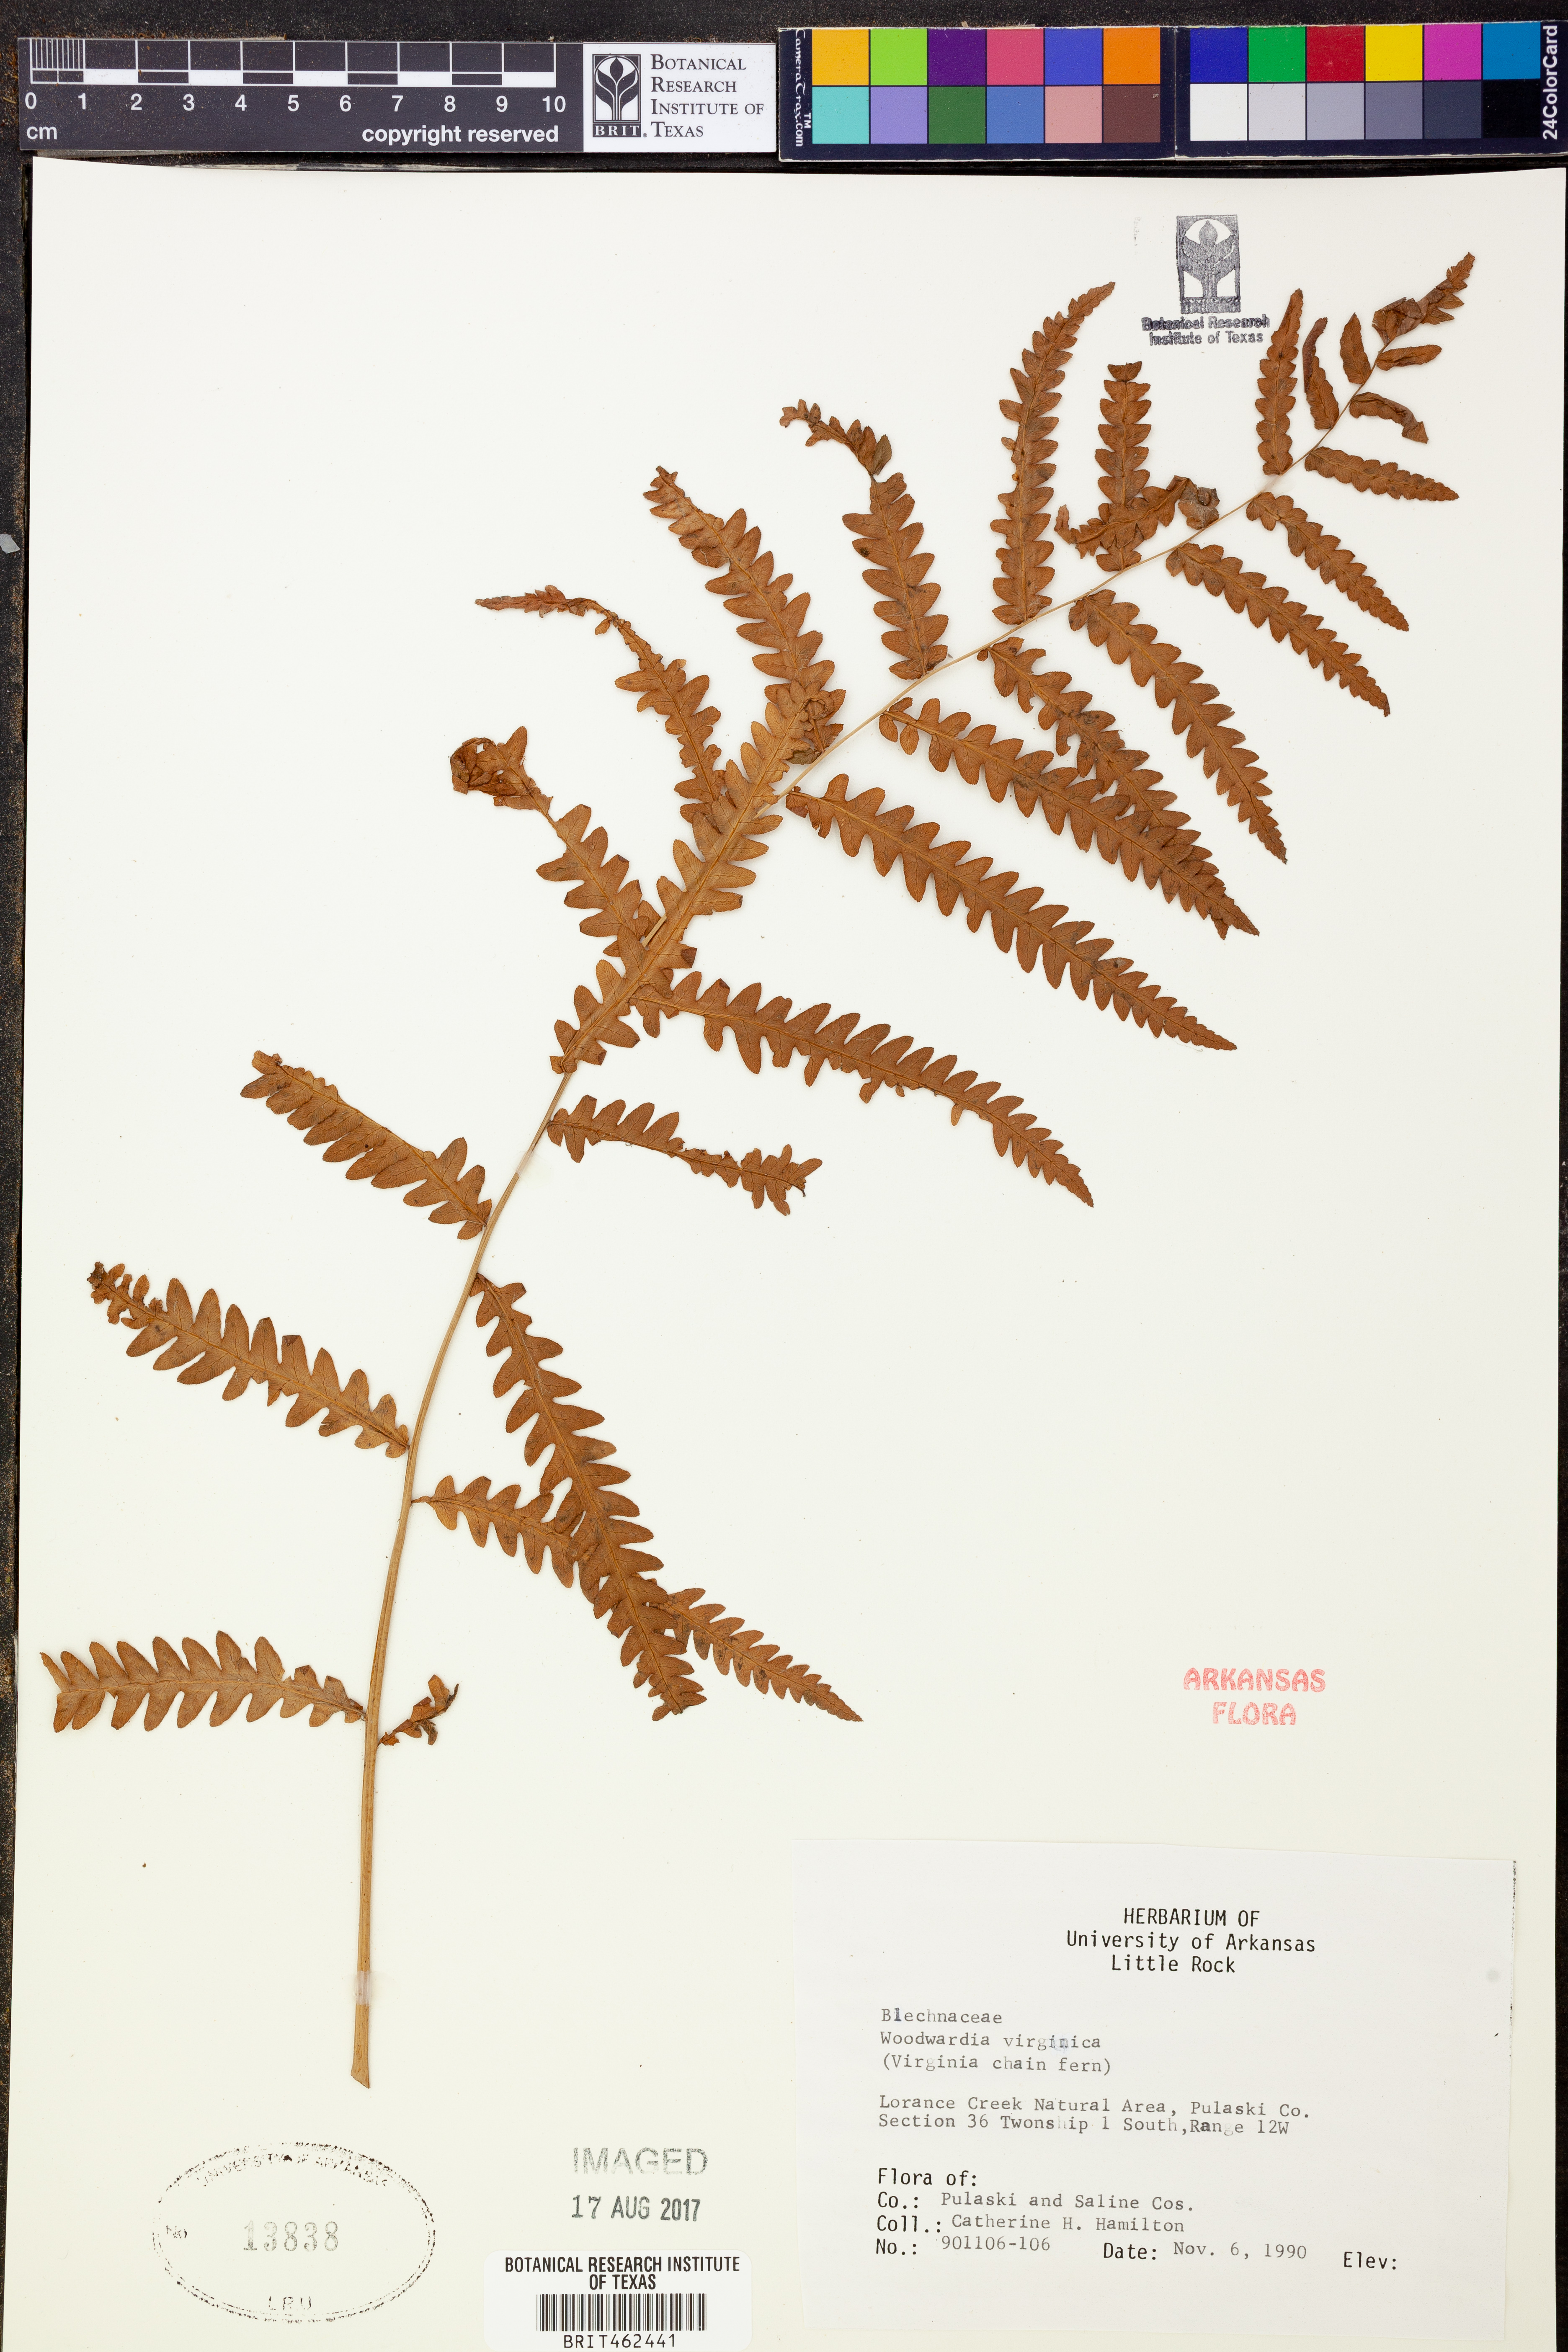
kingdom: Plantae
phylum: Tracheophyta
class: Polypodiopsida
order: Polypodiales
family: Blechnaceae
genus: Anchistea
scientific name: Anchistea virginica
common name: Virginia chain fern
